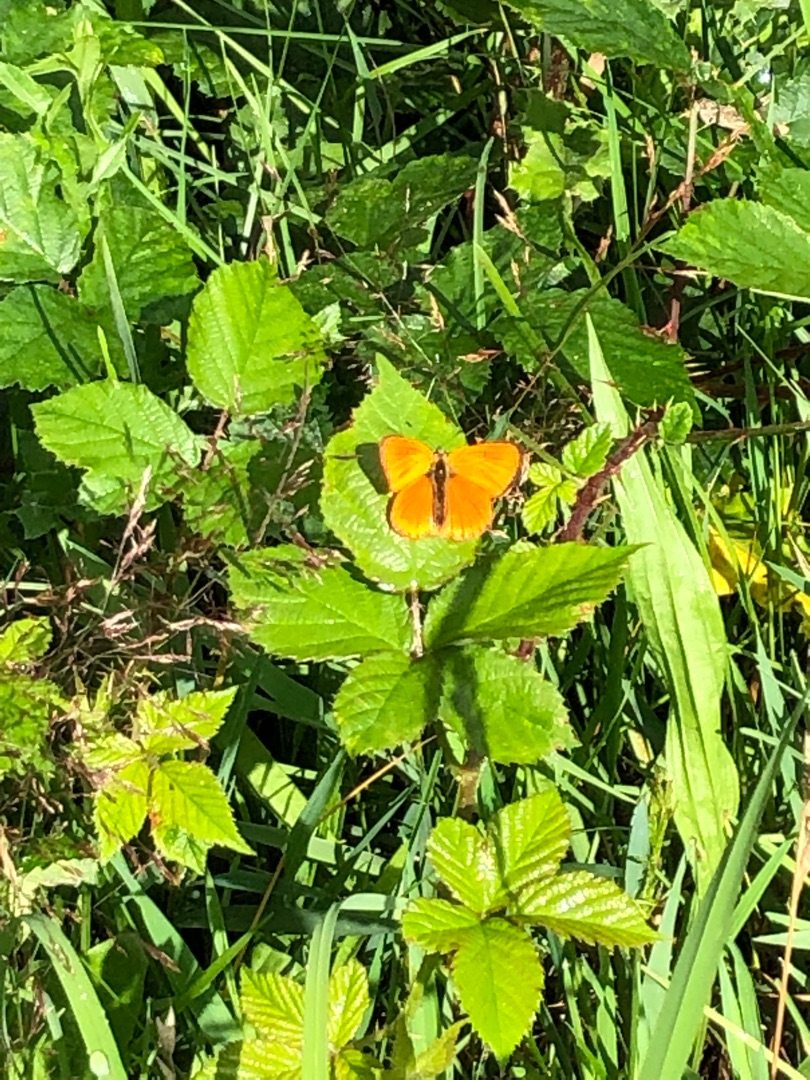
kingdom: Animalia
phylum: Arthropoda
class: Insecta
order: Lepidoptera
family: Lycaenidae
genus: Lycaena
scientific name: Lycaena virgaureae
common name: Dukatsommerfugl
